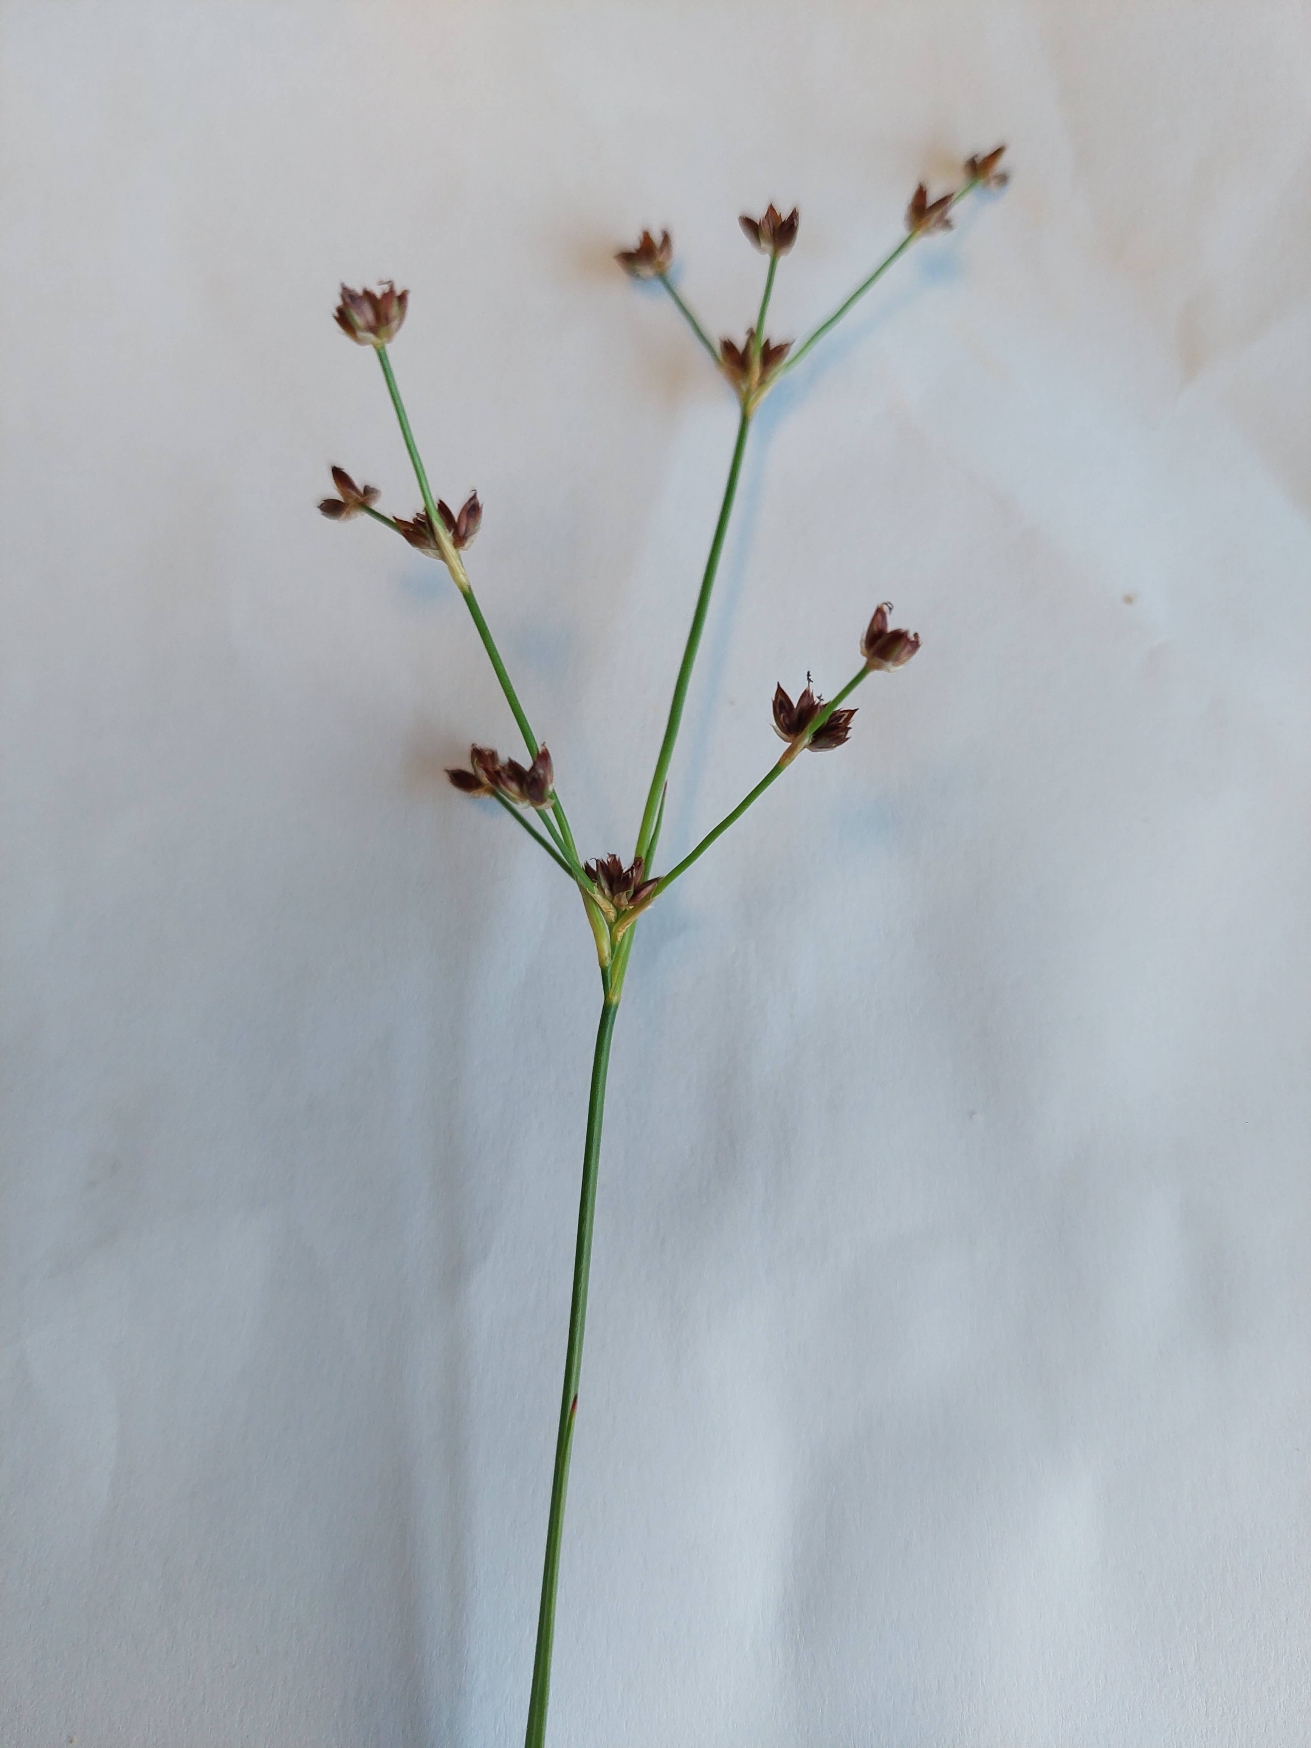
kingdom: Plantae
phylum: Tracheophyta
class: Liliopsida
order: Poales
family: Juncaceae
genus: Juncus
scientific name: Juncus articulatus
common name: Glanskapslet siv
